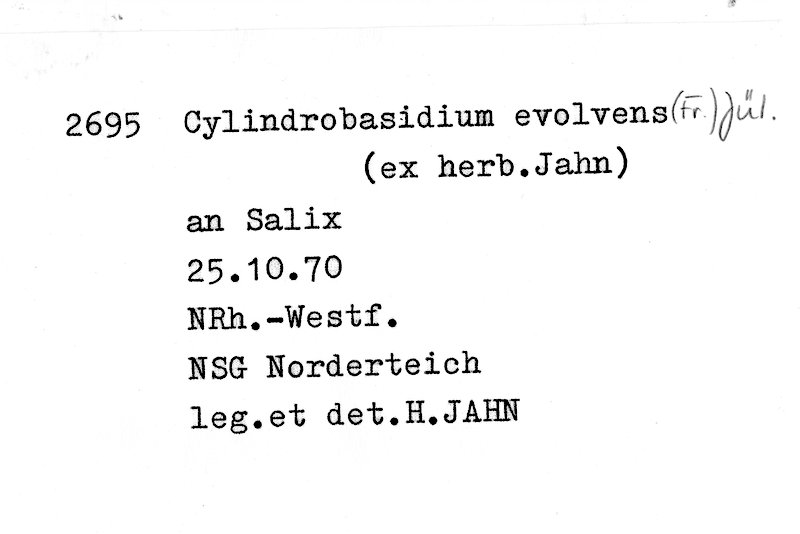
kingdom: Fungi
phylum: Basidiomycota
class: Agaricomycetes
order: Agaricales
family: Physalacriaceae
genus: Cylindrobasidium
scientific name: Cylindrobasidium evolvens
